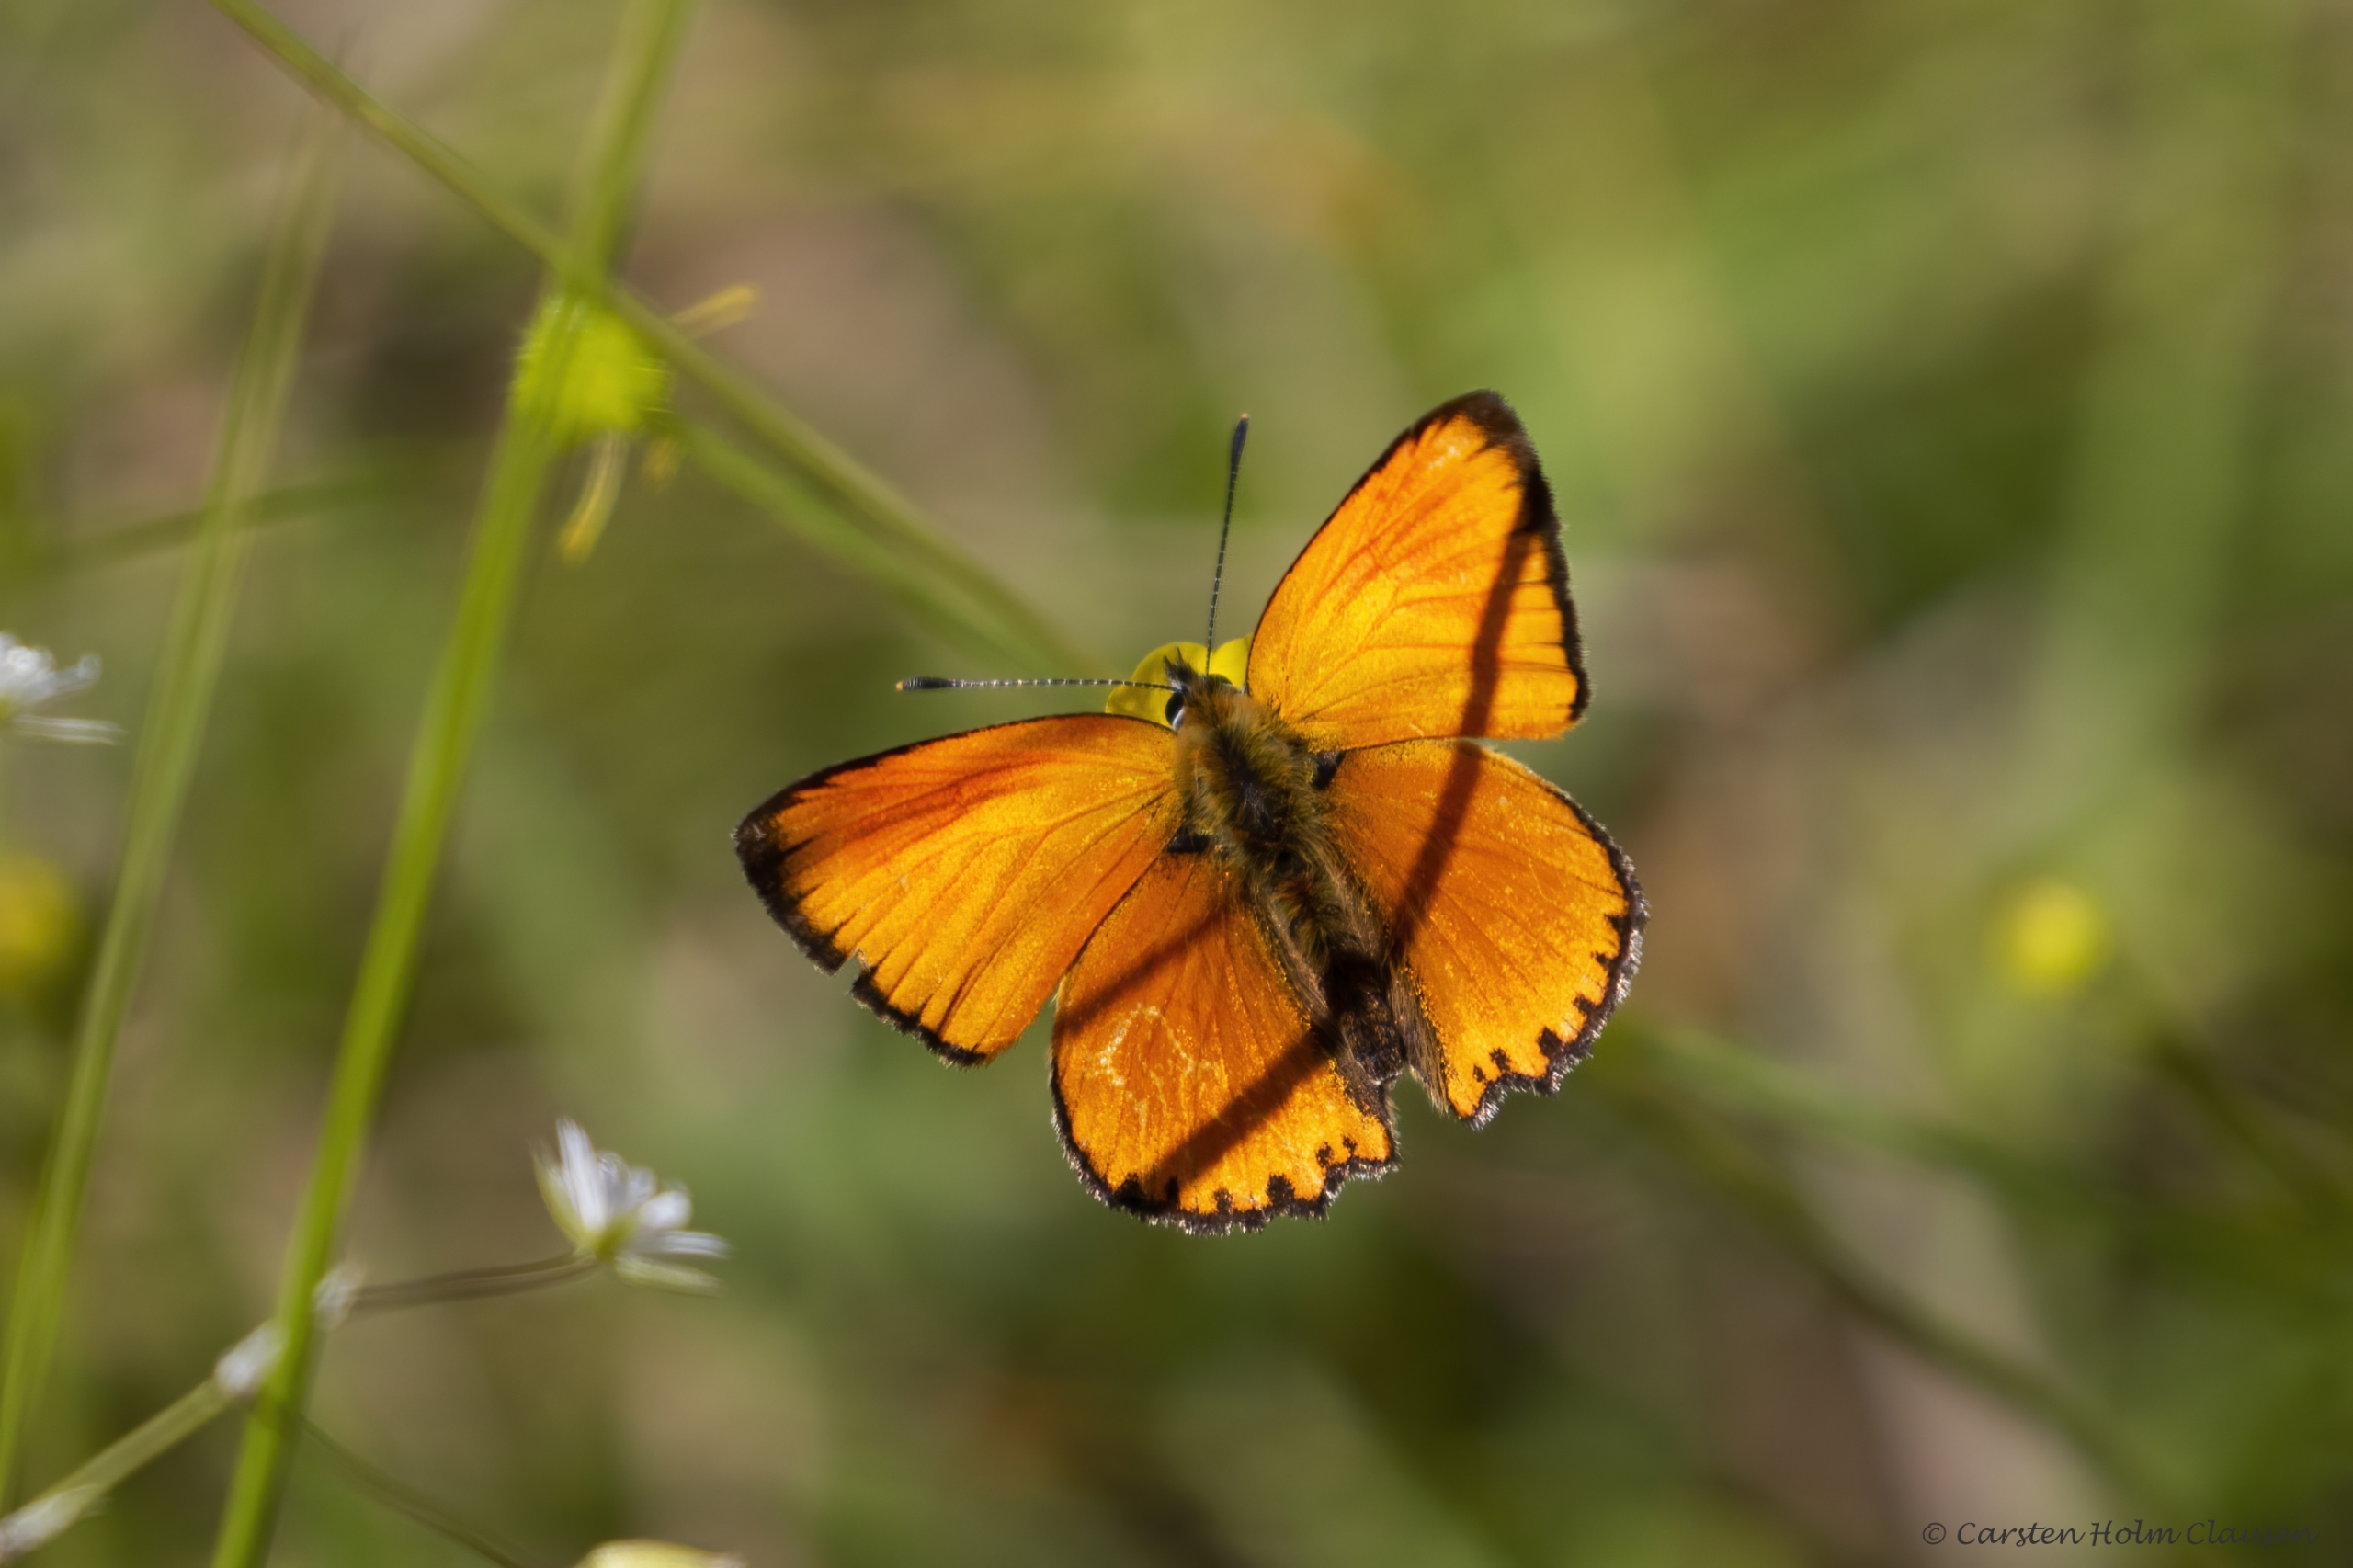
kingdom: Animalia
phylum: Arthropoda
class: Insecta
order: Lepidoptera
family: Lycaenidae
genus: Lycaena
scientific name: Lycaena virgaureae
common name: Dukatsommerfugl
